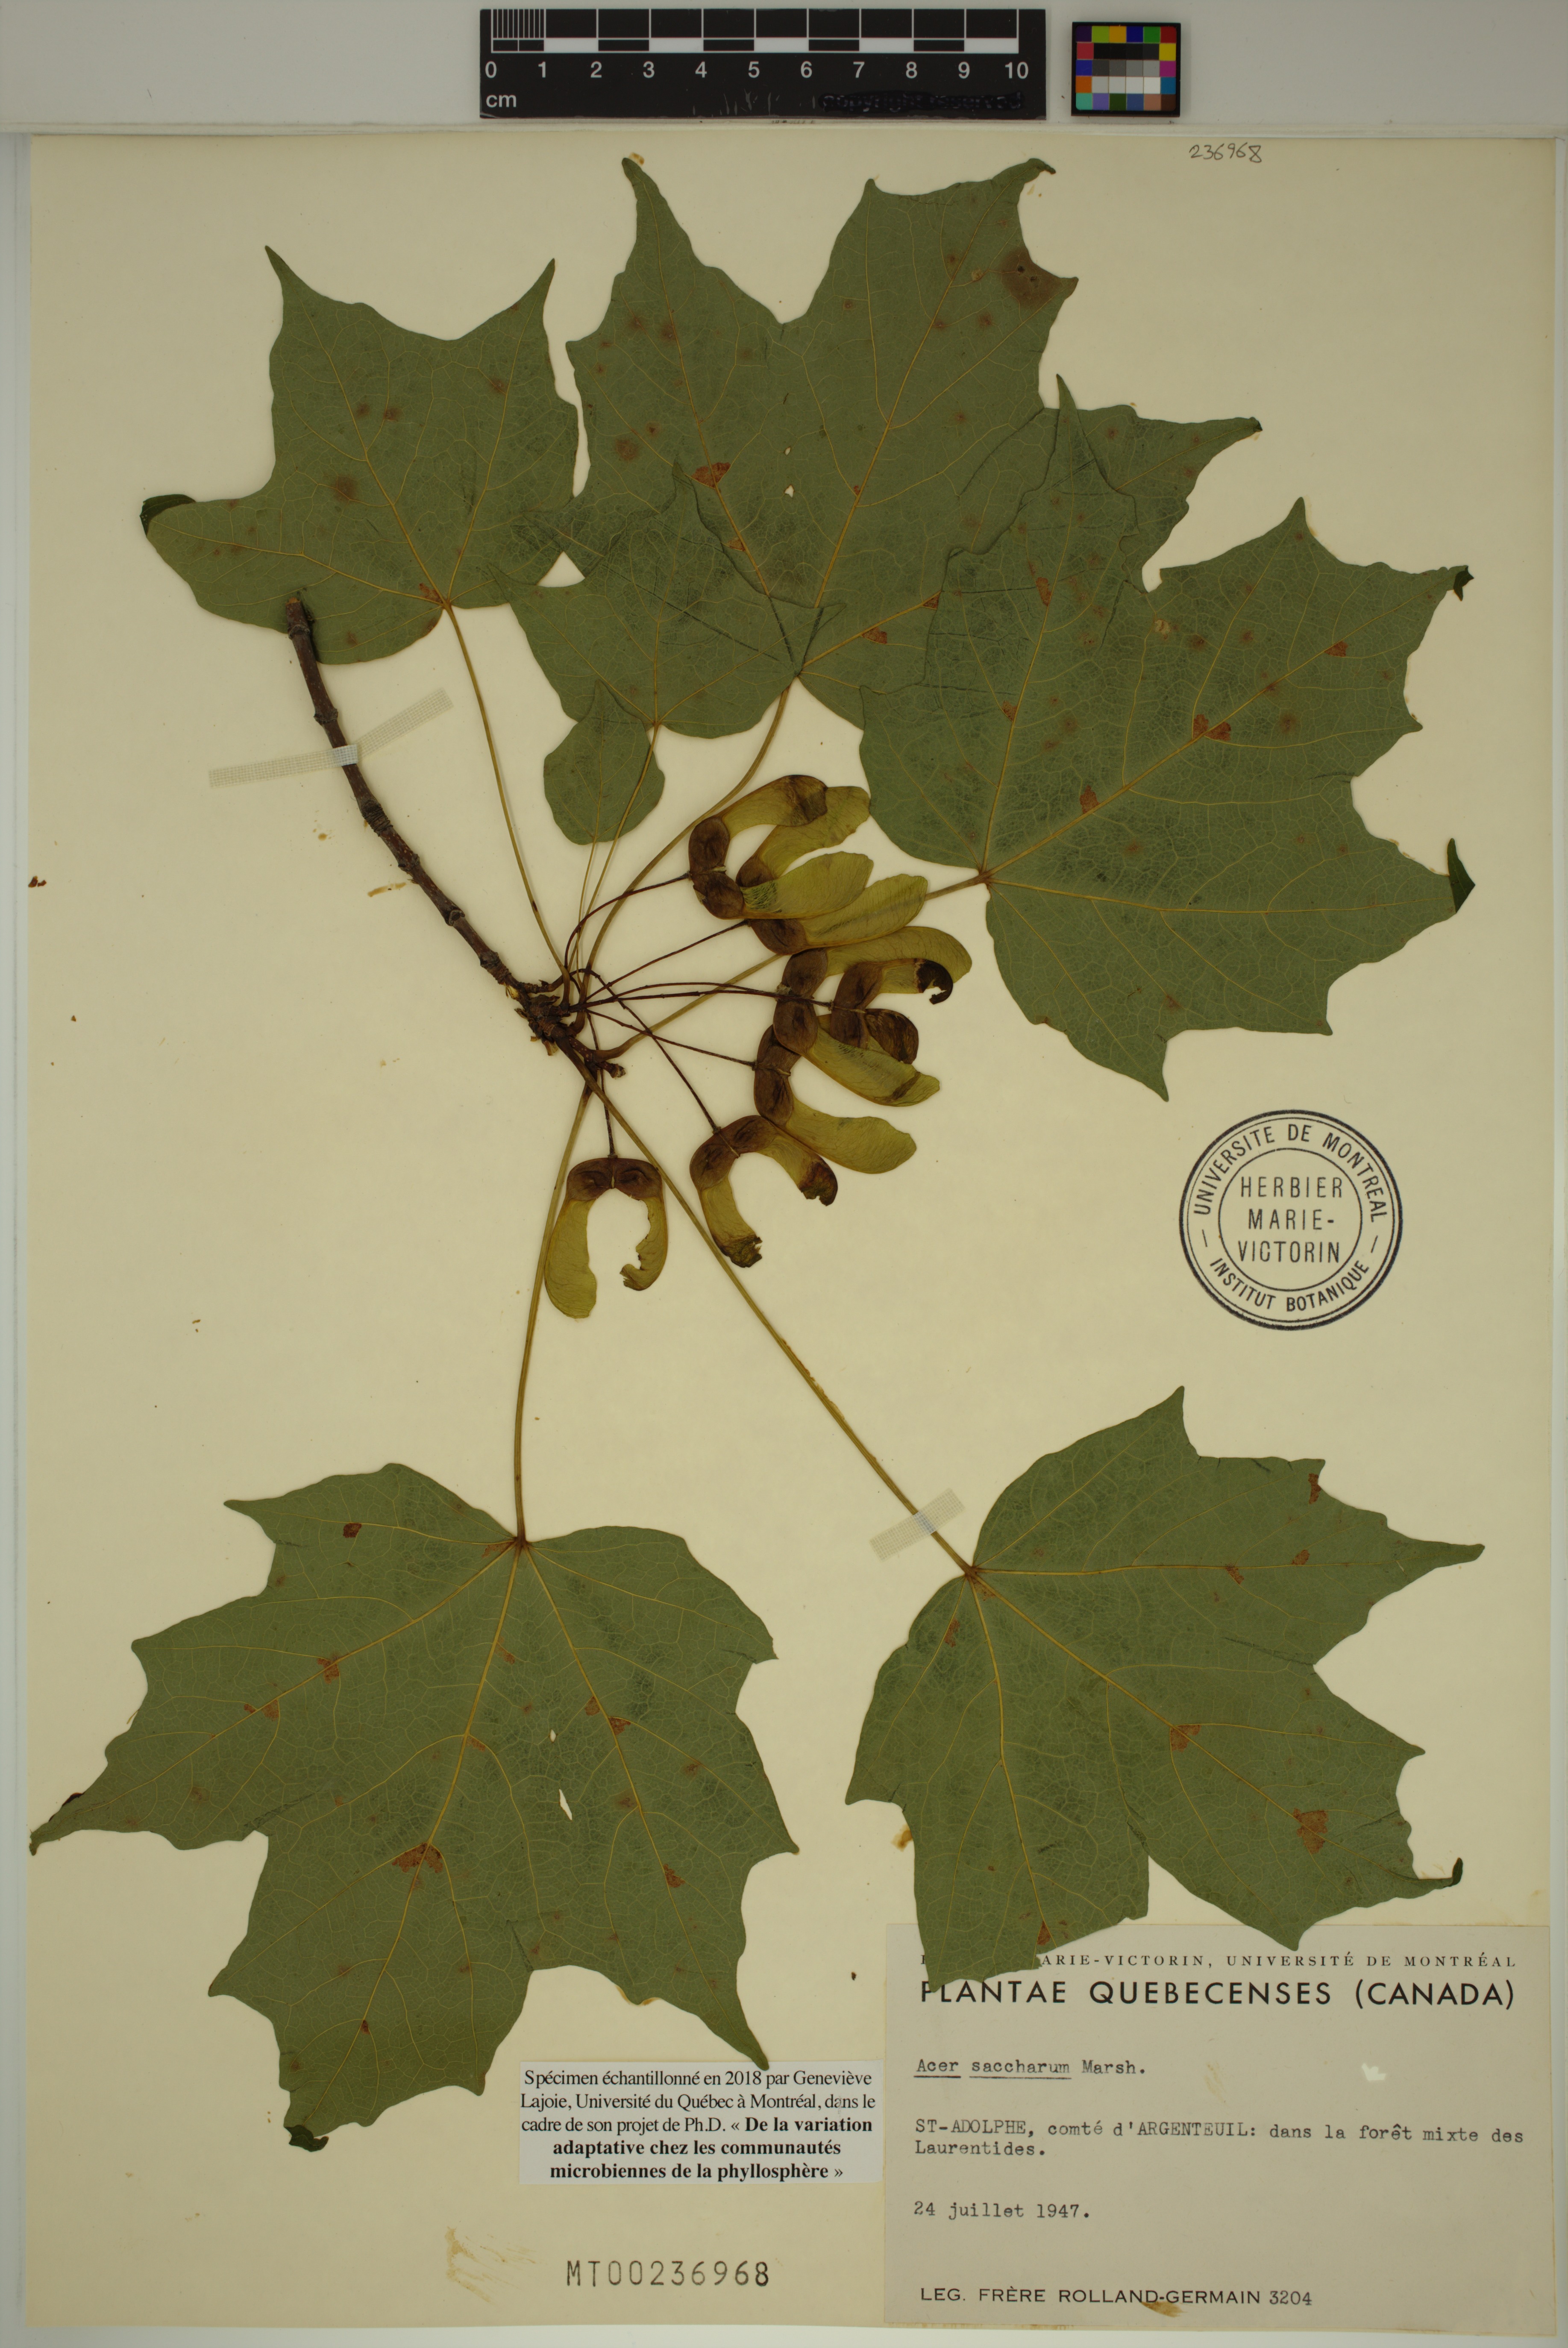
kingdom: Plantae
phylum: Tracheophyta
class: Magnoliopsida
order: Sapindales
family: Sapindaceae
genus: Acer
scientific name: Acer saccharum
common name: Sugar maple
